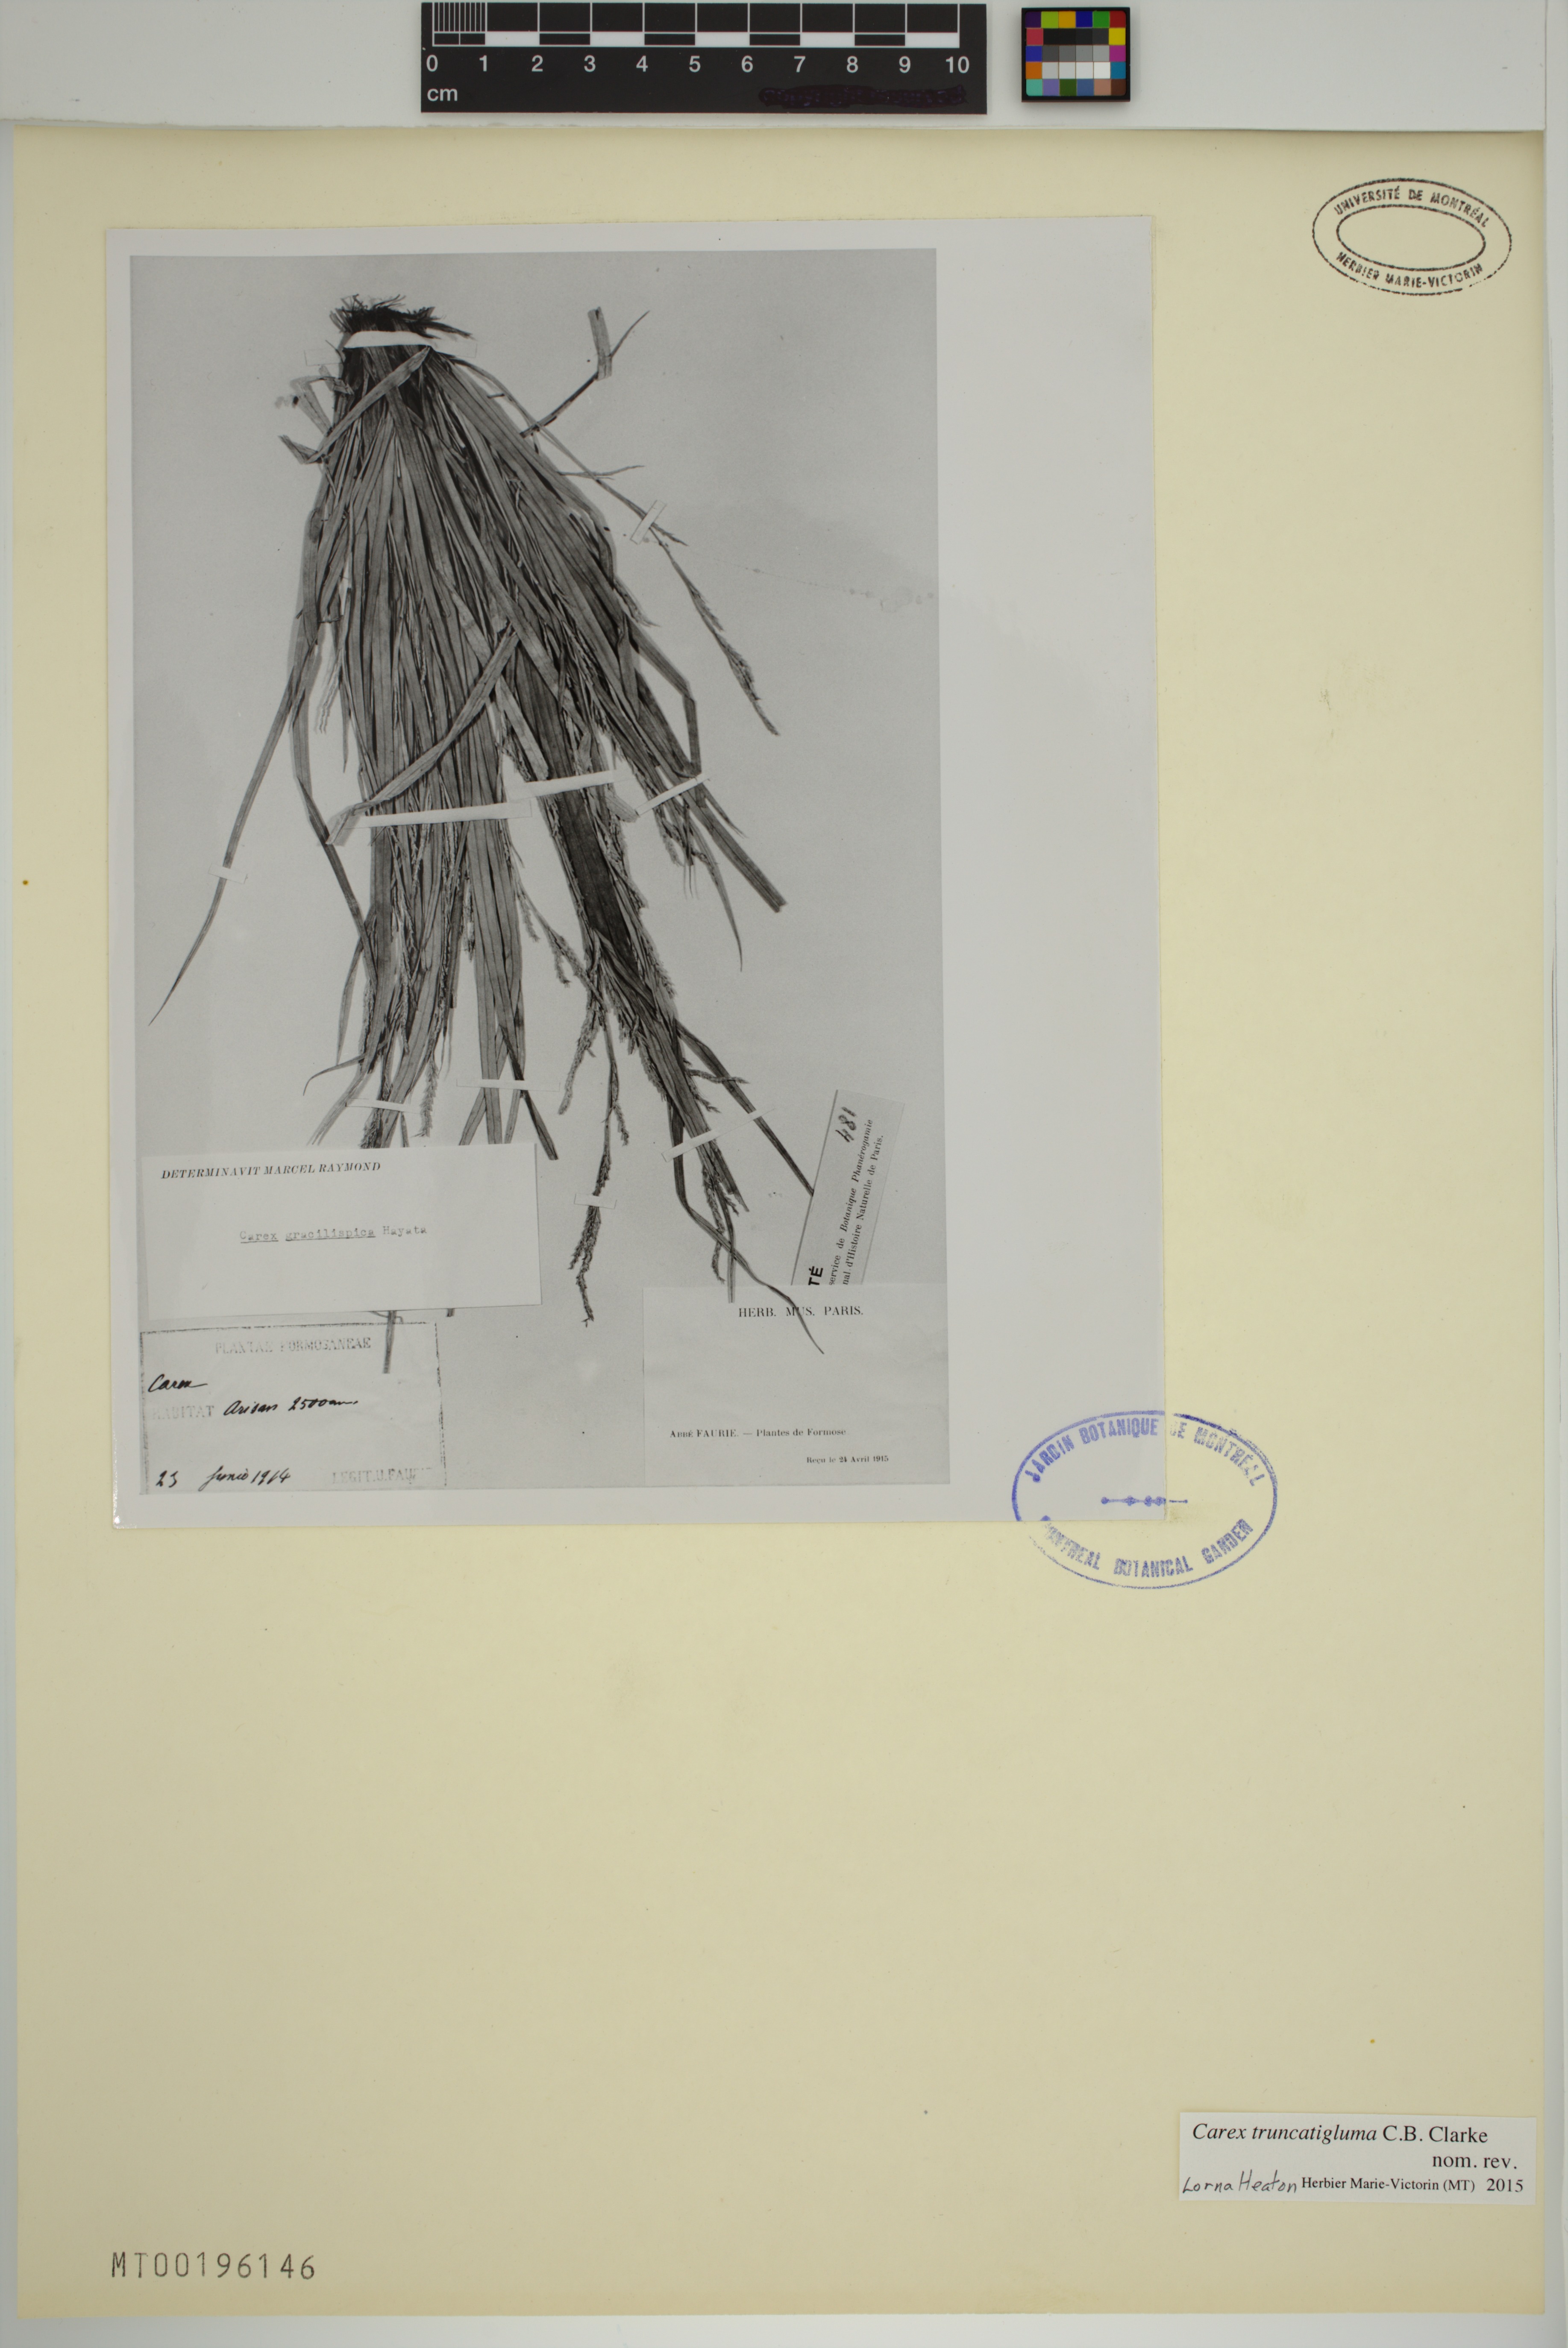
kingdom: Plantae
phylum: Tracheophyta
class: Liliopsida
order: Poales
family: Cyperaceae
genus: Carex
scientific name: Carex truncatigluma
